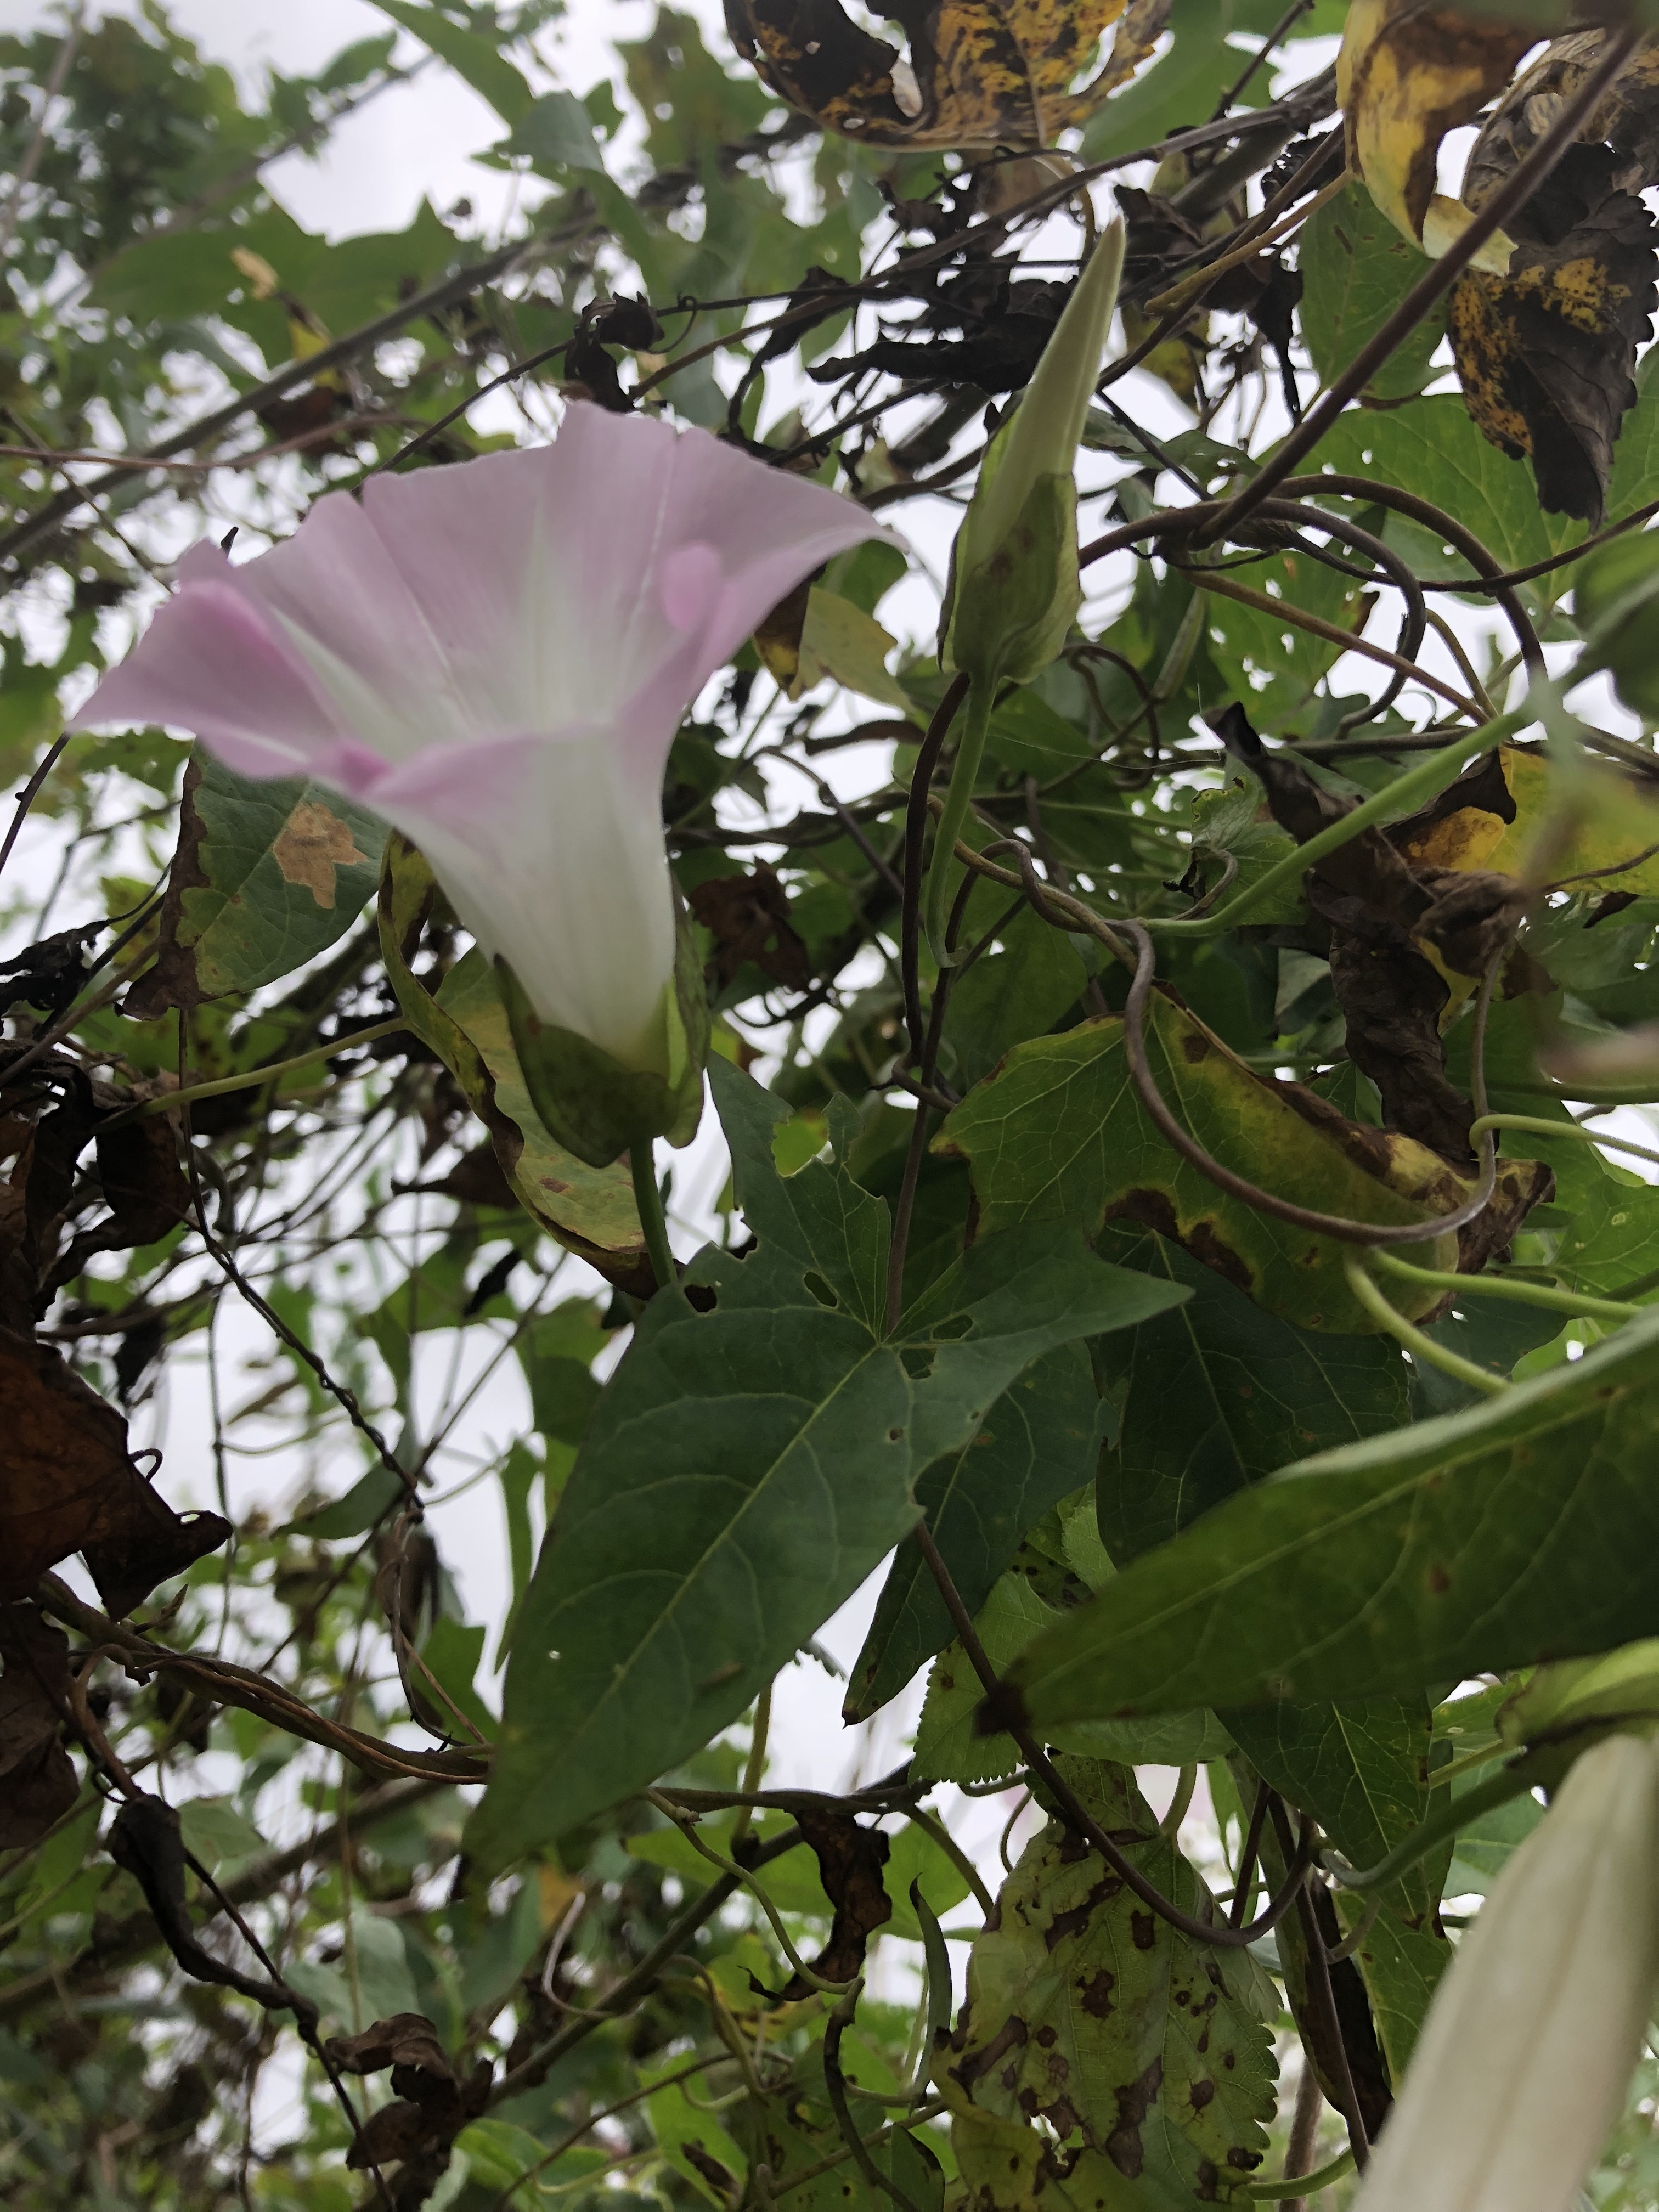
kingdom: Plantae
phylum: Tracheophyta
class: Magnoliopsida
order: Solanales
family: Convolvulaceae
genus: Calystegia
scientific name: Calystegia sepium
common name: Hedge bindweed
